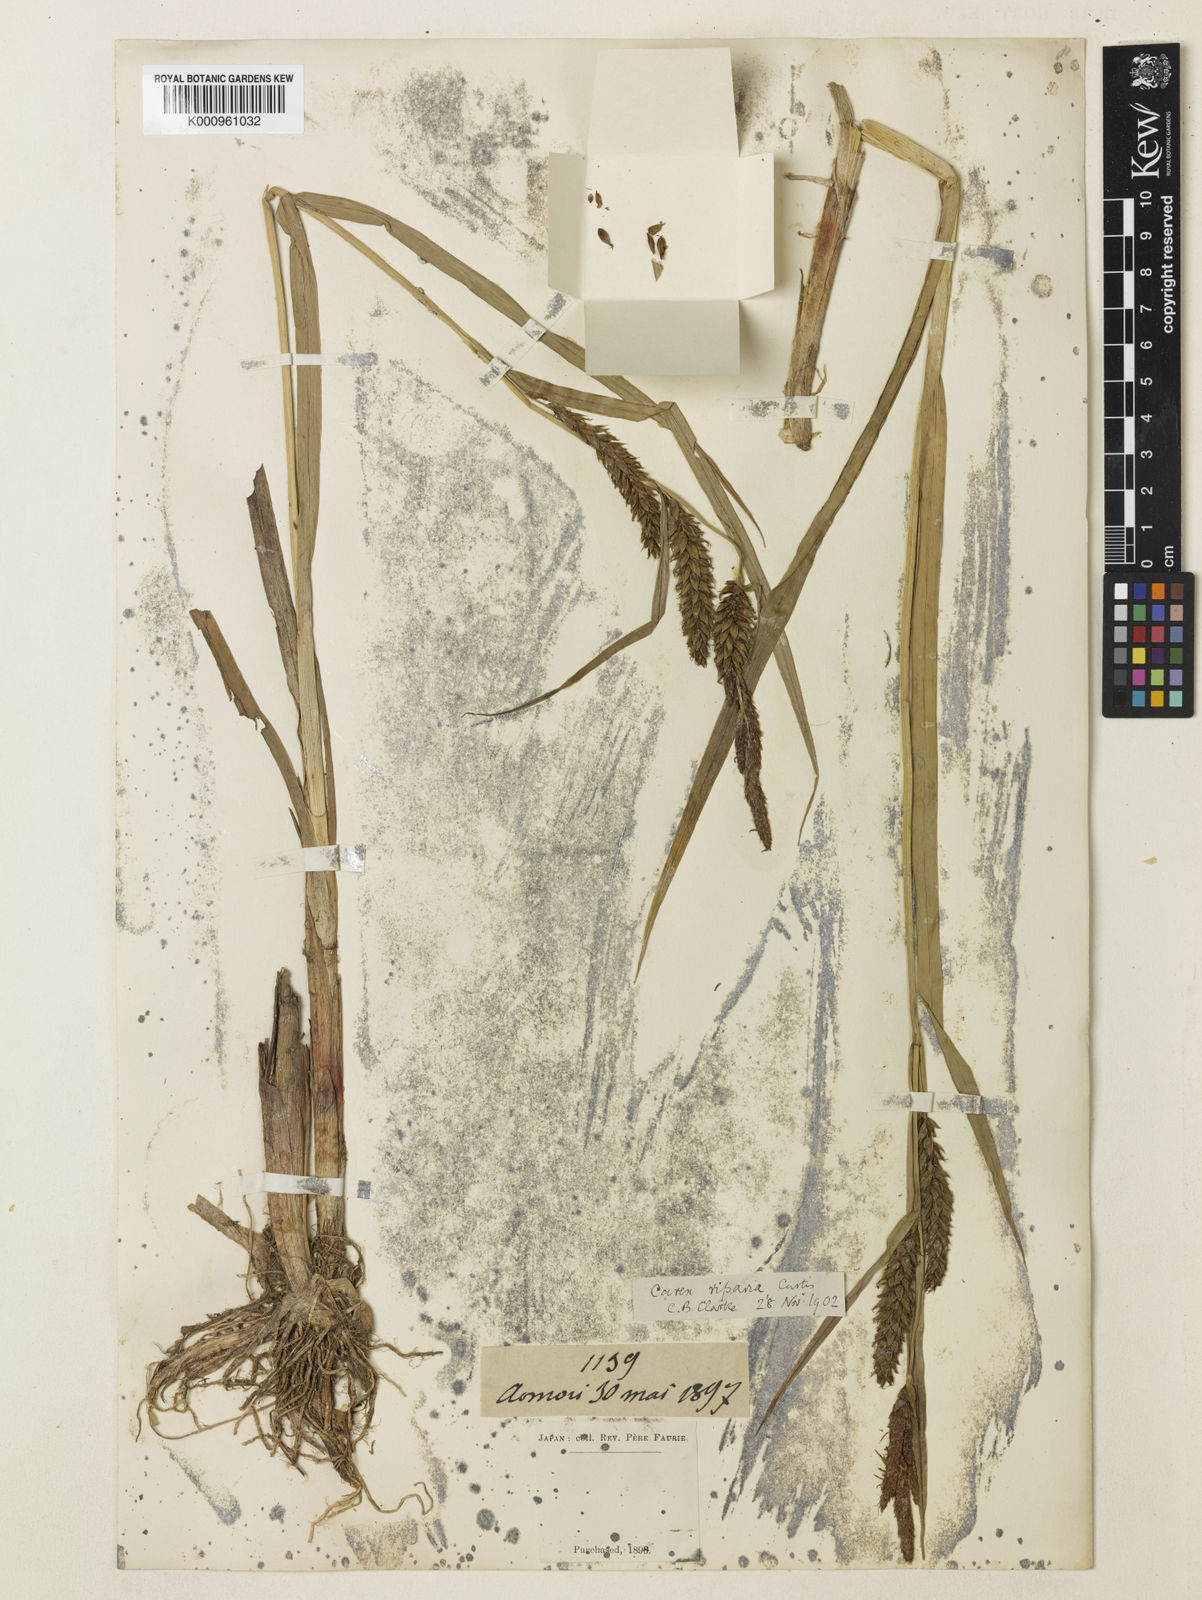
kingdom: Plantae
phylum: Tracheophyta
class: Liliopsida
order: Poales
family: Cyperaceae
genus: Carex
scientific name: Carex riparia
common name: Greater pond-sedge
